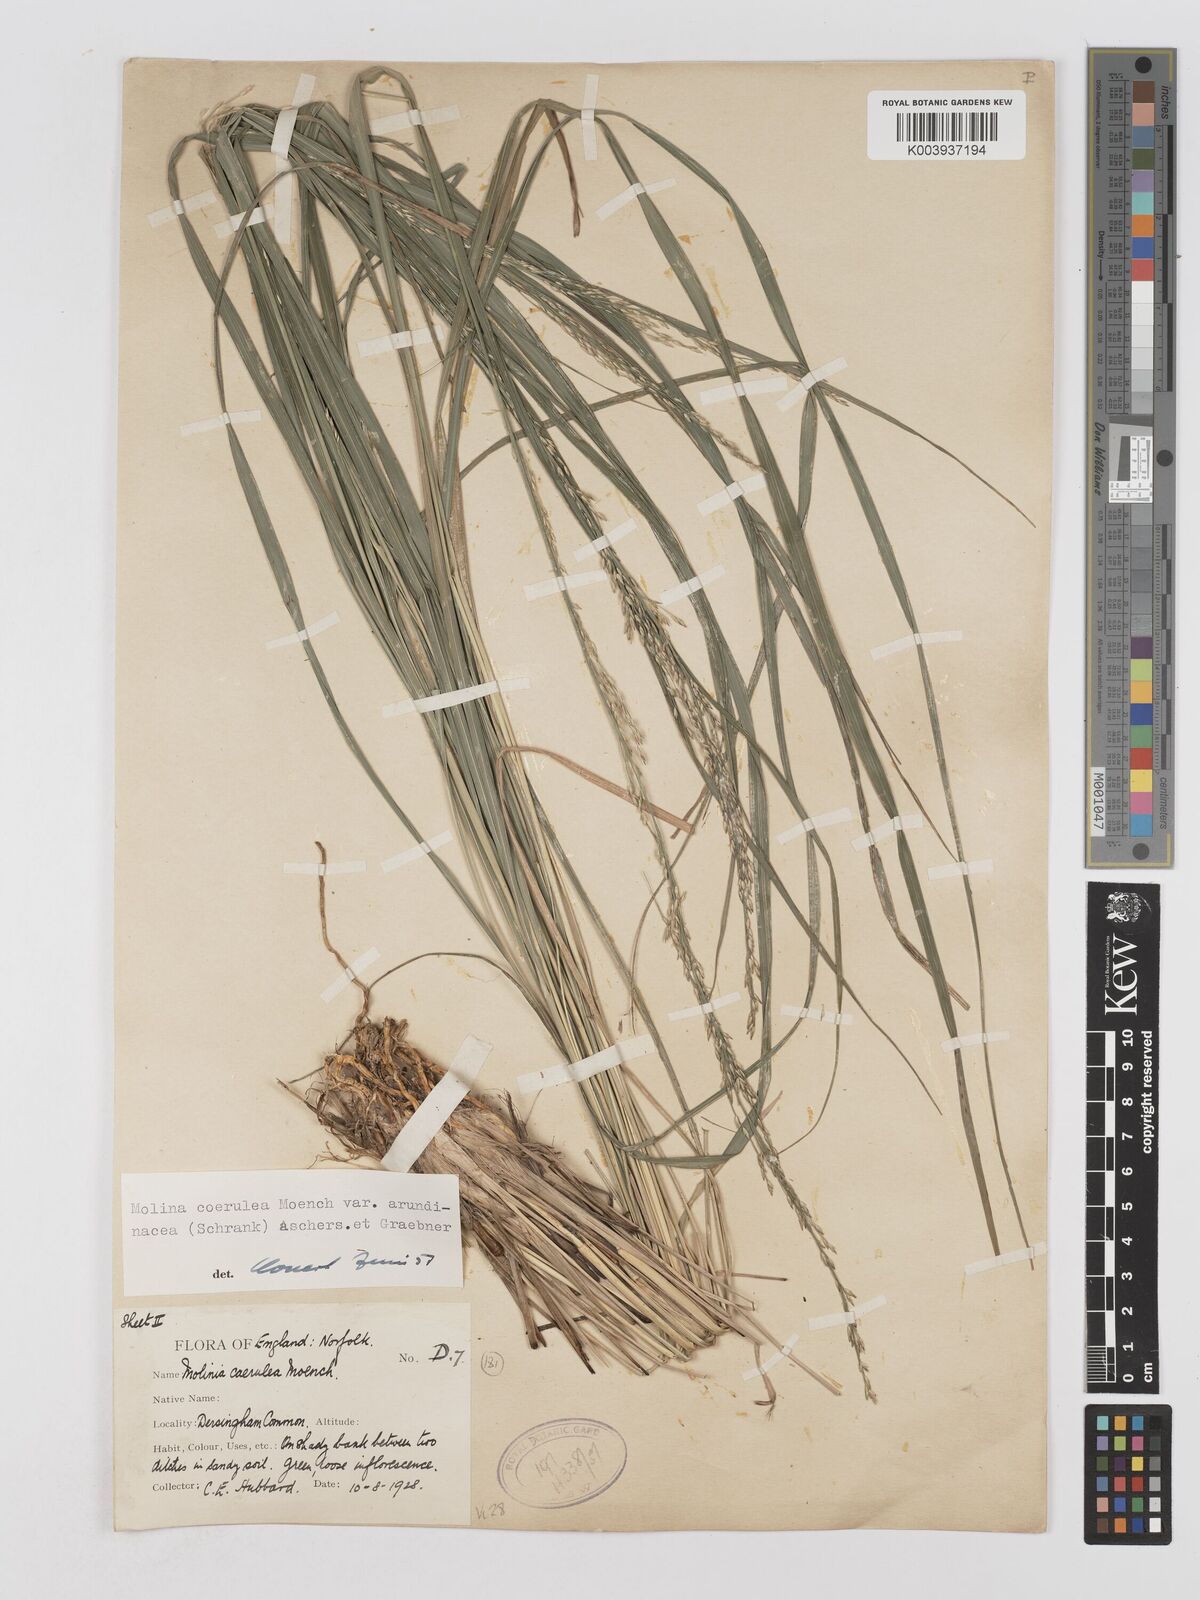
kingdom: Plantae
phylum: Tracheophyta
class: Liliopsida
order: Poales
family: Poaceae
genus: Molinia
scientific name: Molinia caerulea
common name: Purple moor-grass
